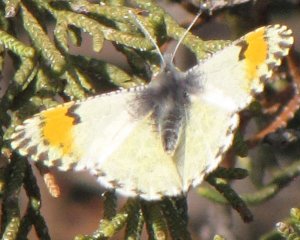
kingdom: Animalia
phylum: Arthropoda
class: Insecta
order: Lepidoptera
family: Pieridae
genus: Anthocharis
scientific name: Anthocharis sara
